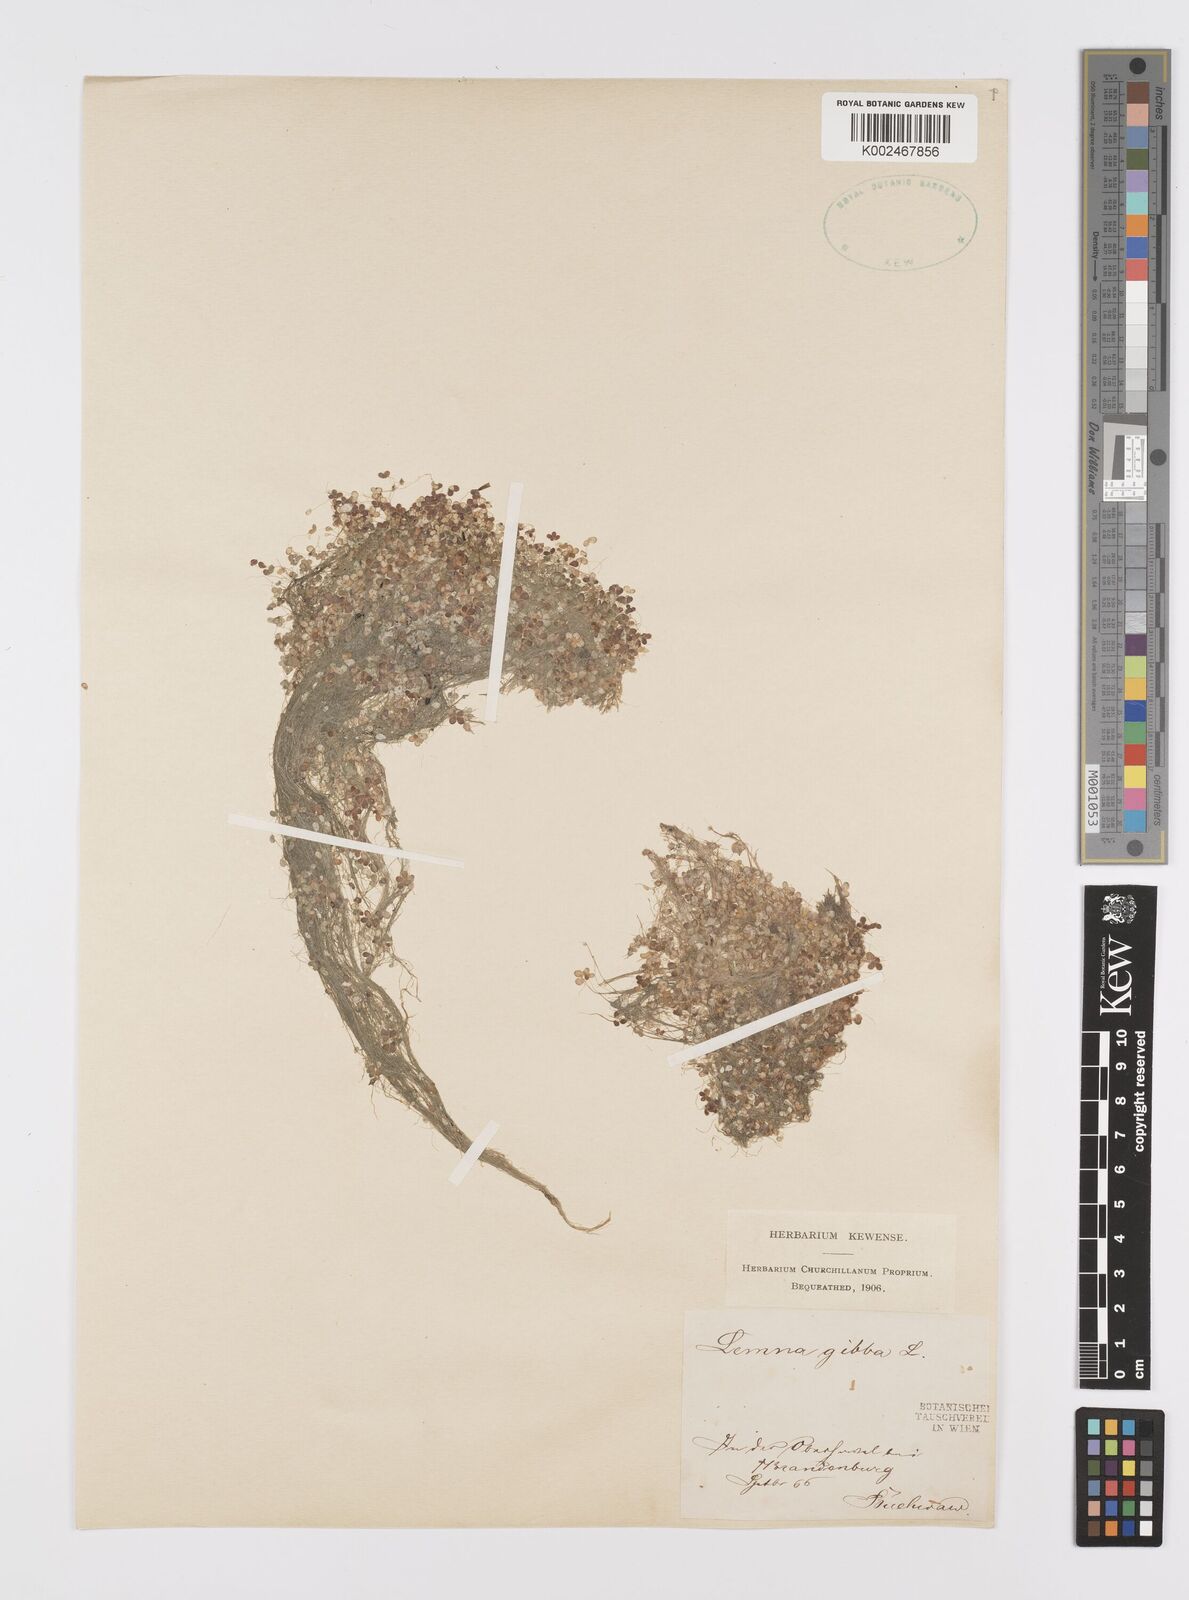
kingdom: Plantae
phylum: Tracheophyta
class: Liliopsida
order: Alismatales
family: Araceae
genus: Lemna
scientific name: Lemna gibba
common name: Fat duckweed
